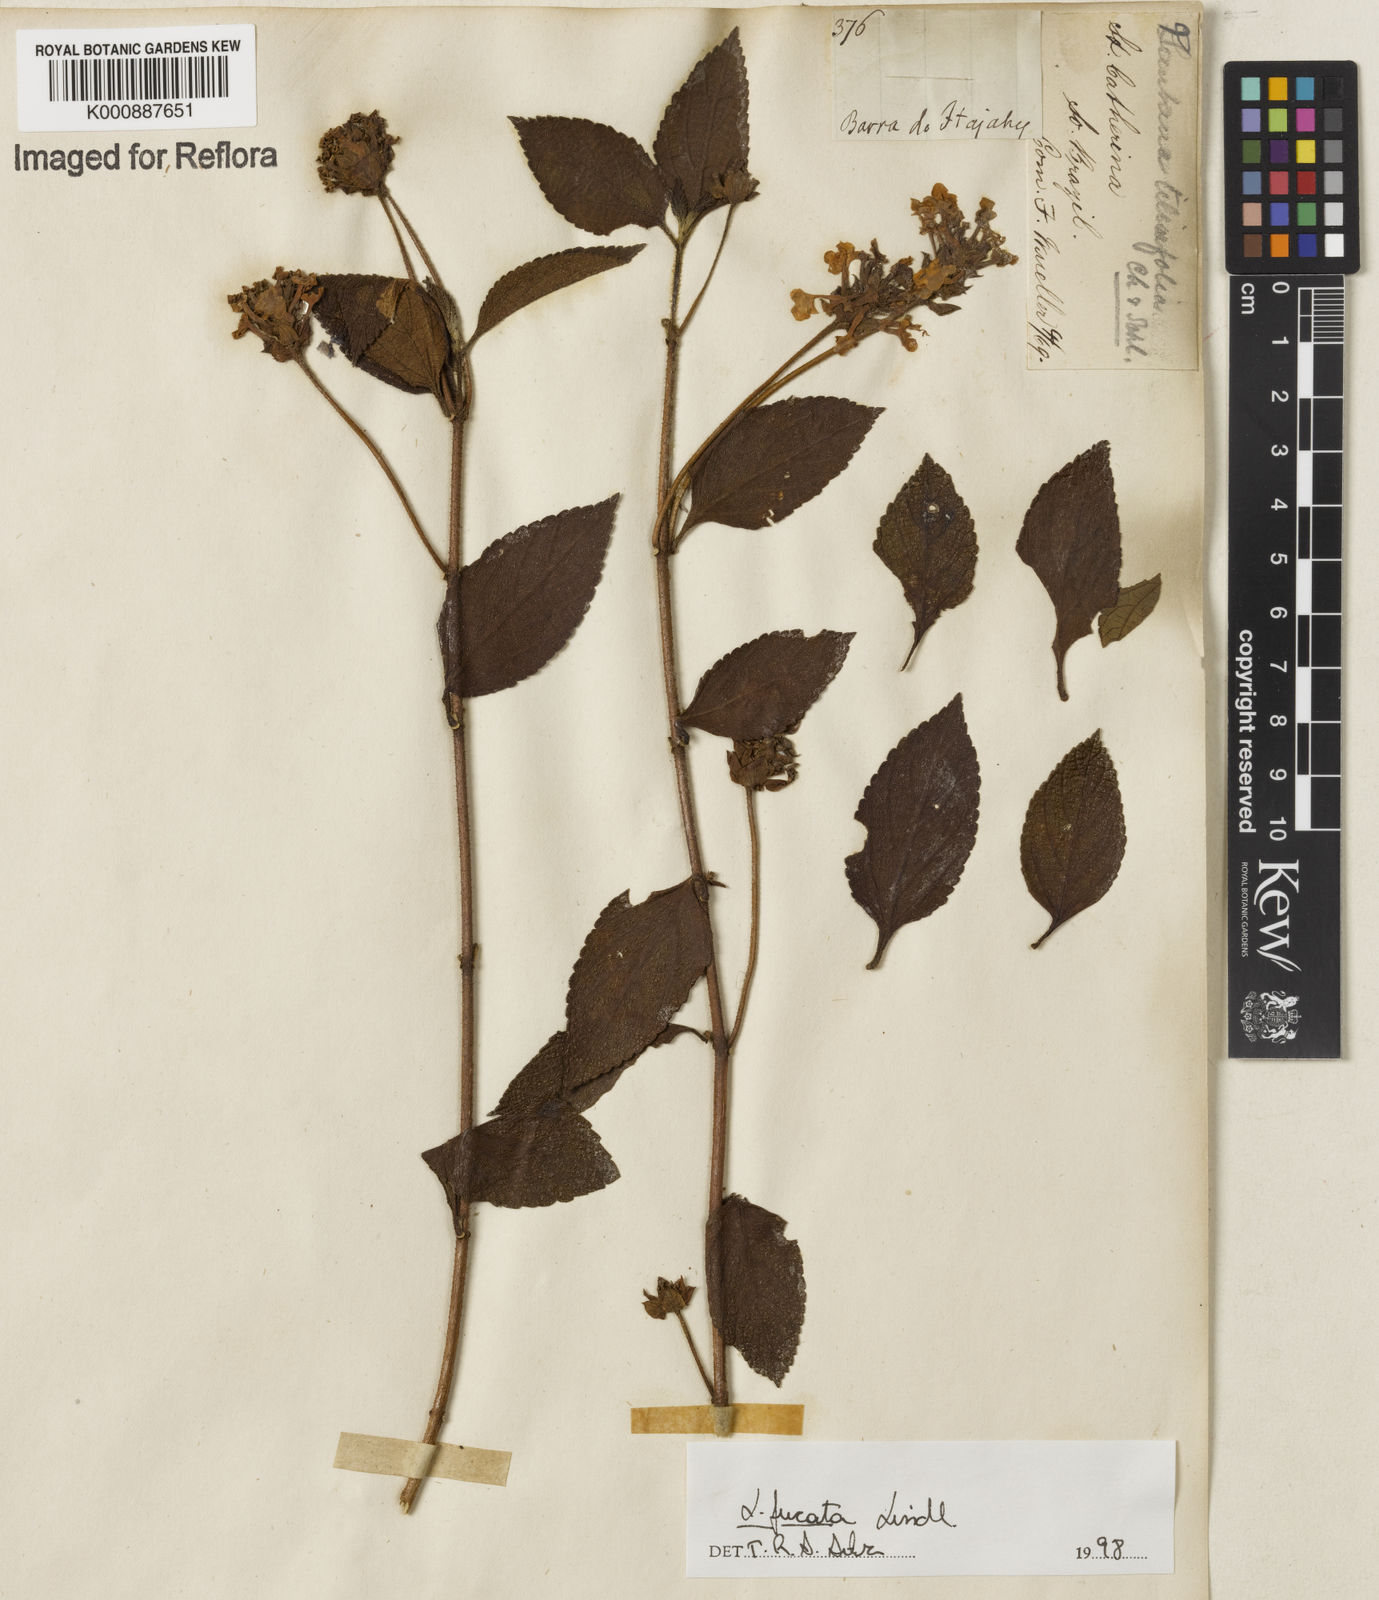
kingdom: Plantae
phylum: Tracheophyta
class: Magnoliopsida
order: Lamiales
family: Verbenaceae
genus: Lantana
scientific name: Lantana fucata
